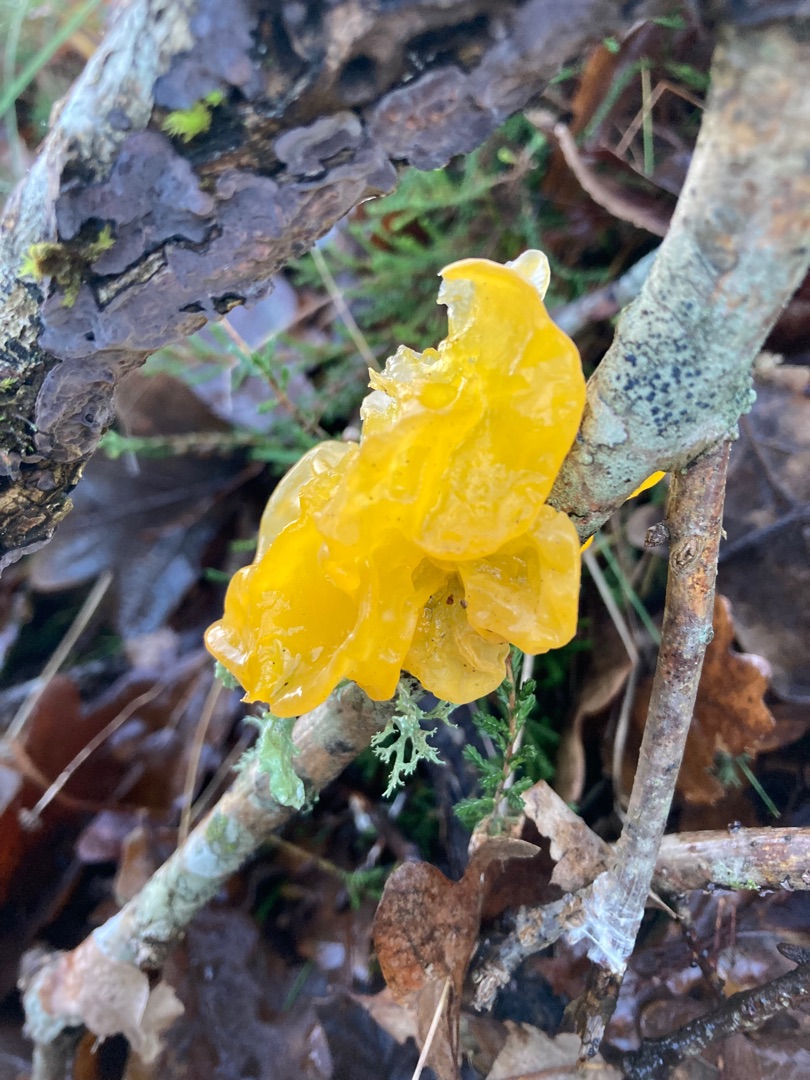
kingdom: Fungi
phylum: Basidiomycota
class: Tremellomycetes
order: Tremellales
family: Tremellaceae
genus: Tremella
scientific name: Tremella mesenterica
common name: Gul bævresvamp
